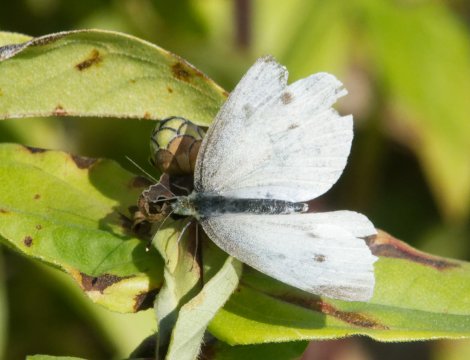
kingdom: Animalia
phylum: Arthropoda
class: Insecta
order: Lepidoptera
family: Pieridae
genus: Pieris
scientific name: Pieris rapae
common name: Cabbage White
